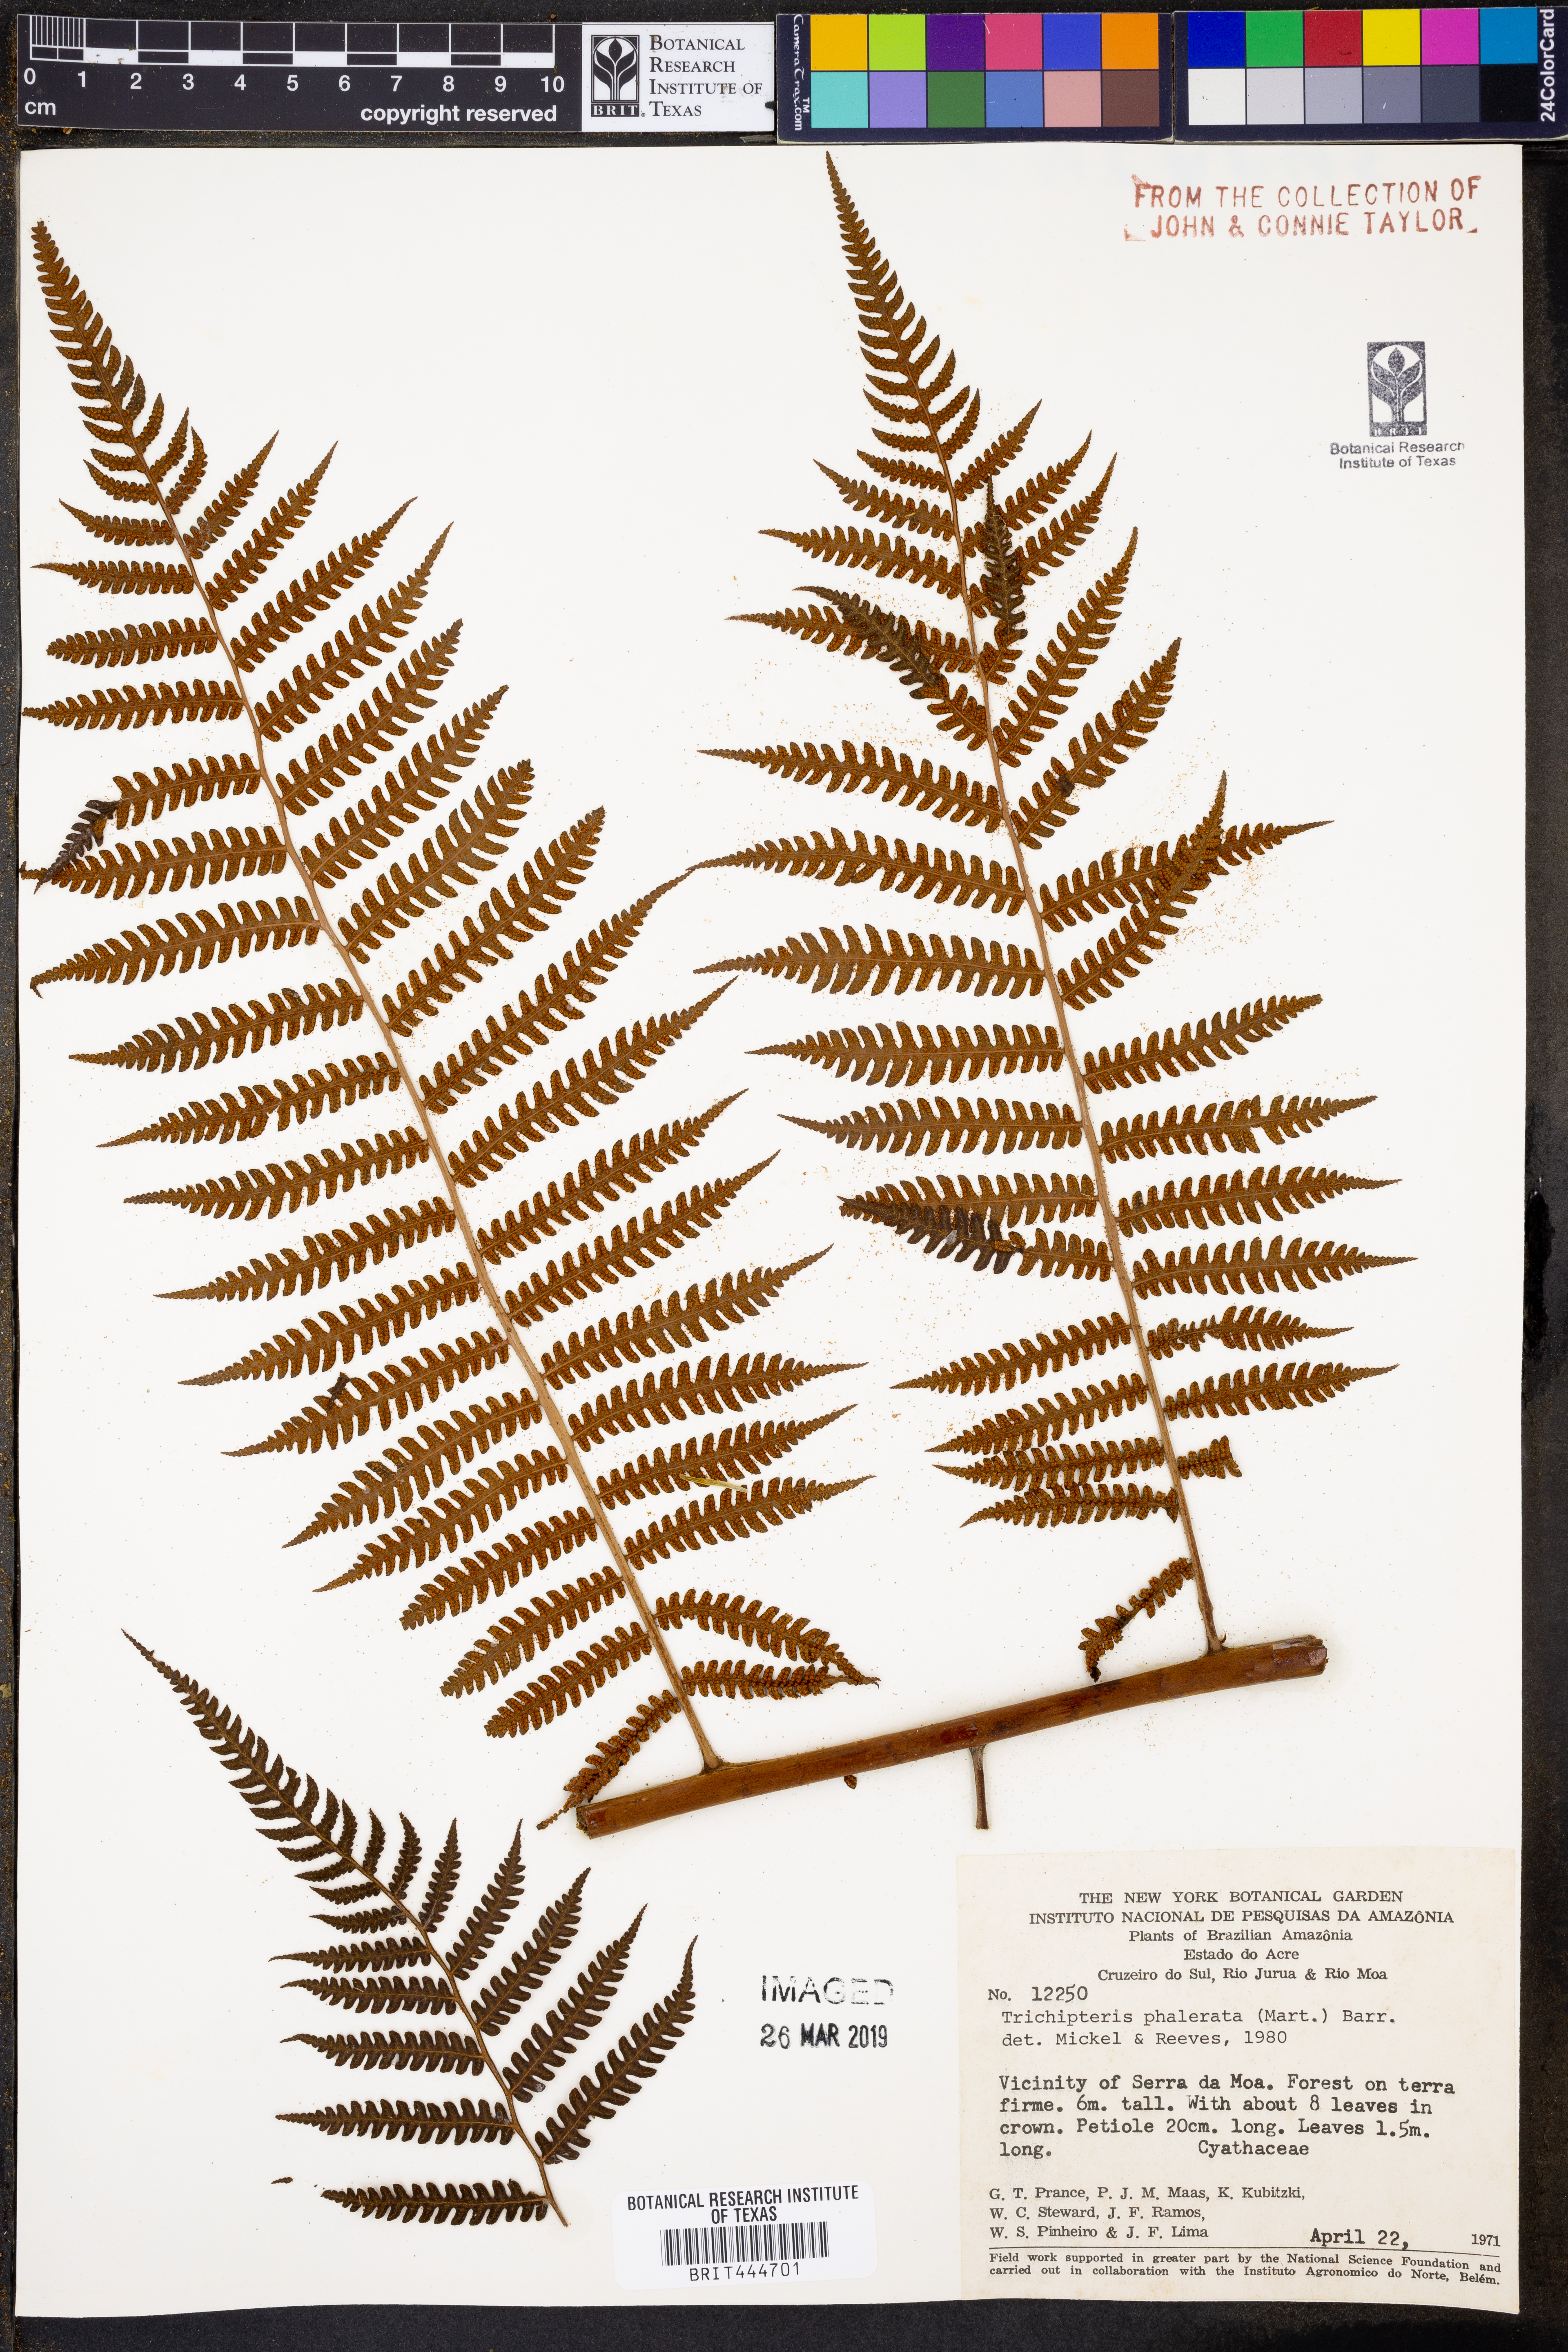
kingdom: Plantae
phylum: Tracheophyta
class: Polypodiopsida
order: Cyatheales
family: Cyatheaceae
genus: Cyathea
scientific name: Cyathea phalerata
